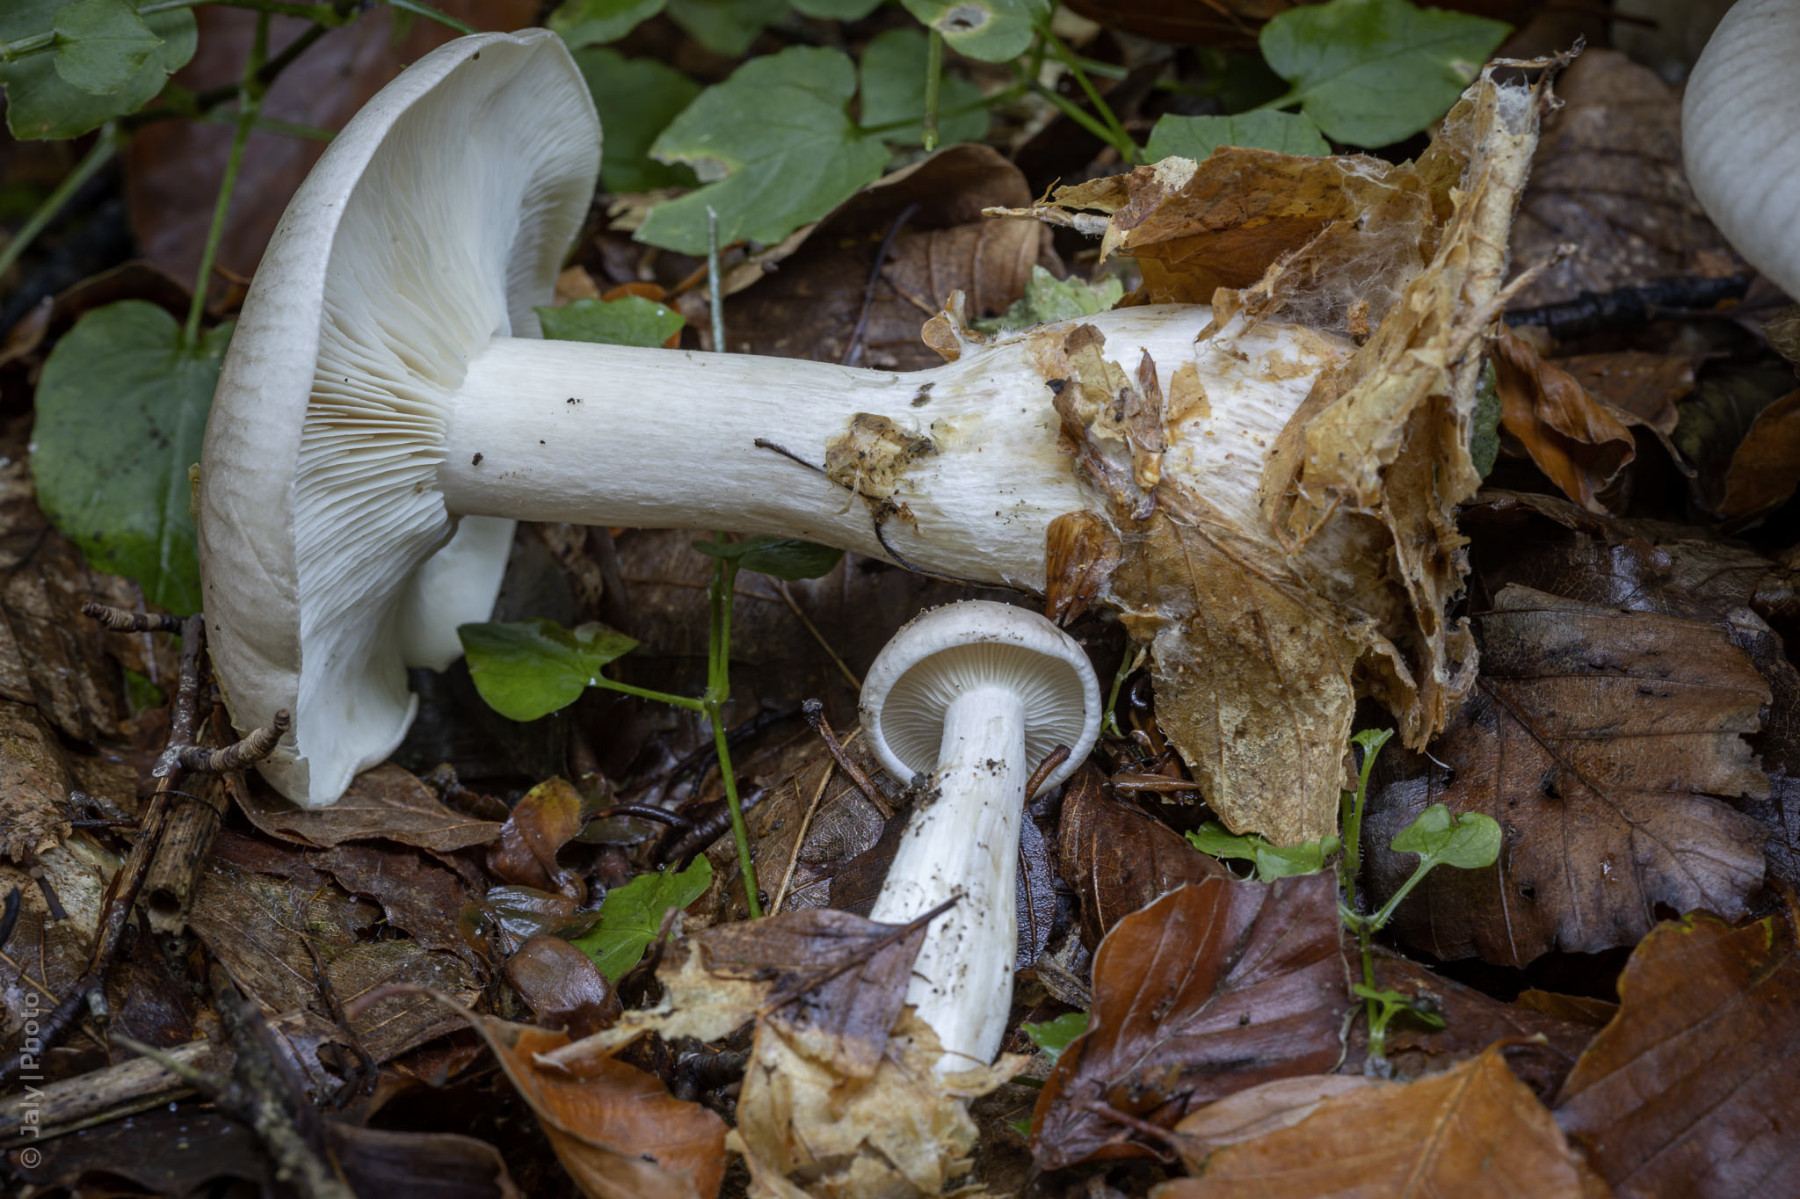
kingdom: Fungi
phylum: Basidiomycota
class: Agaricomycetes
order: Agaricales
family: Tricholomataceae
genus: Clitocybe
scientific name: Clitocybe nebularis
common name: tåge-tragthat
